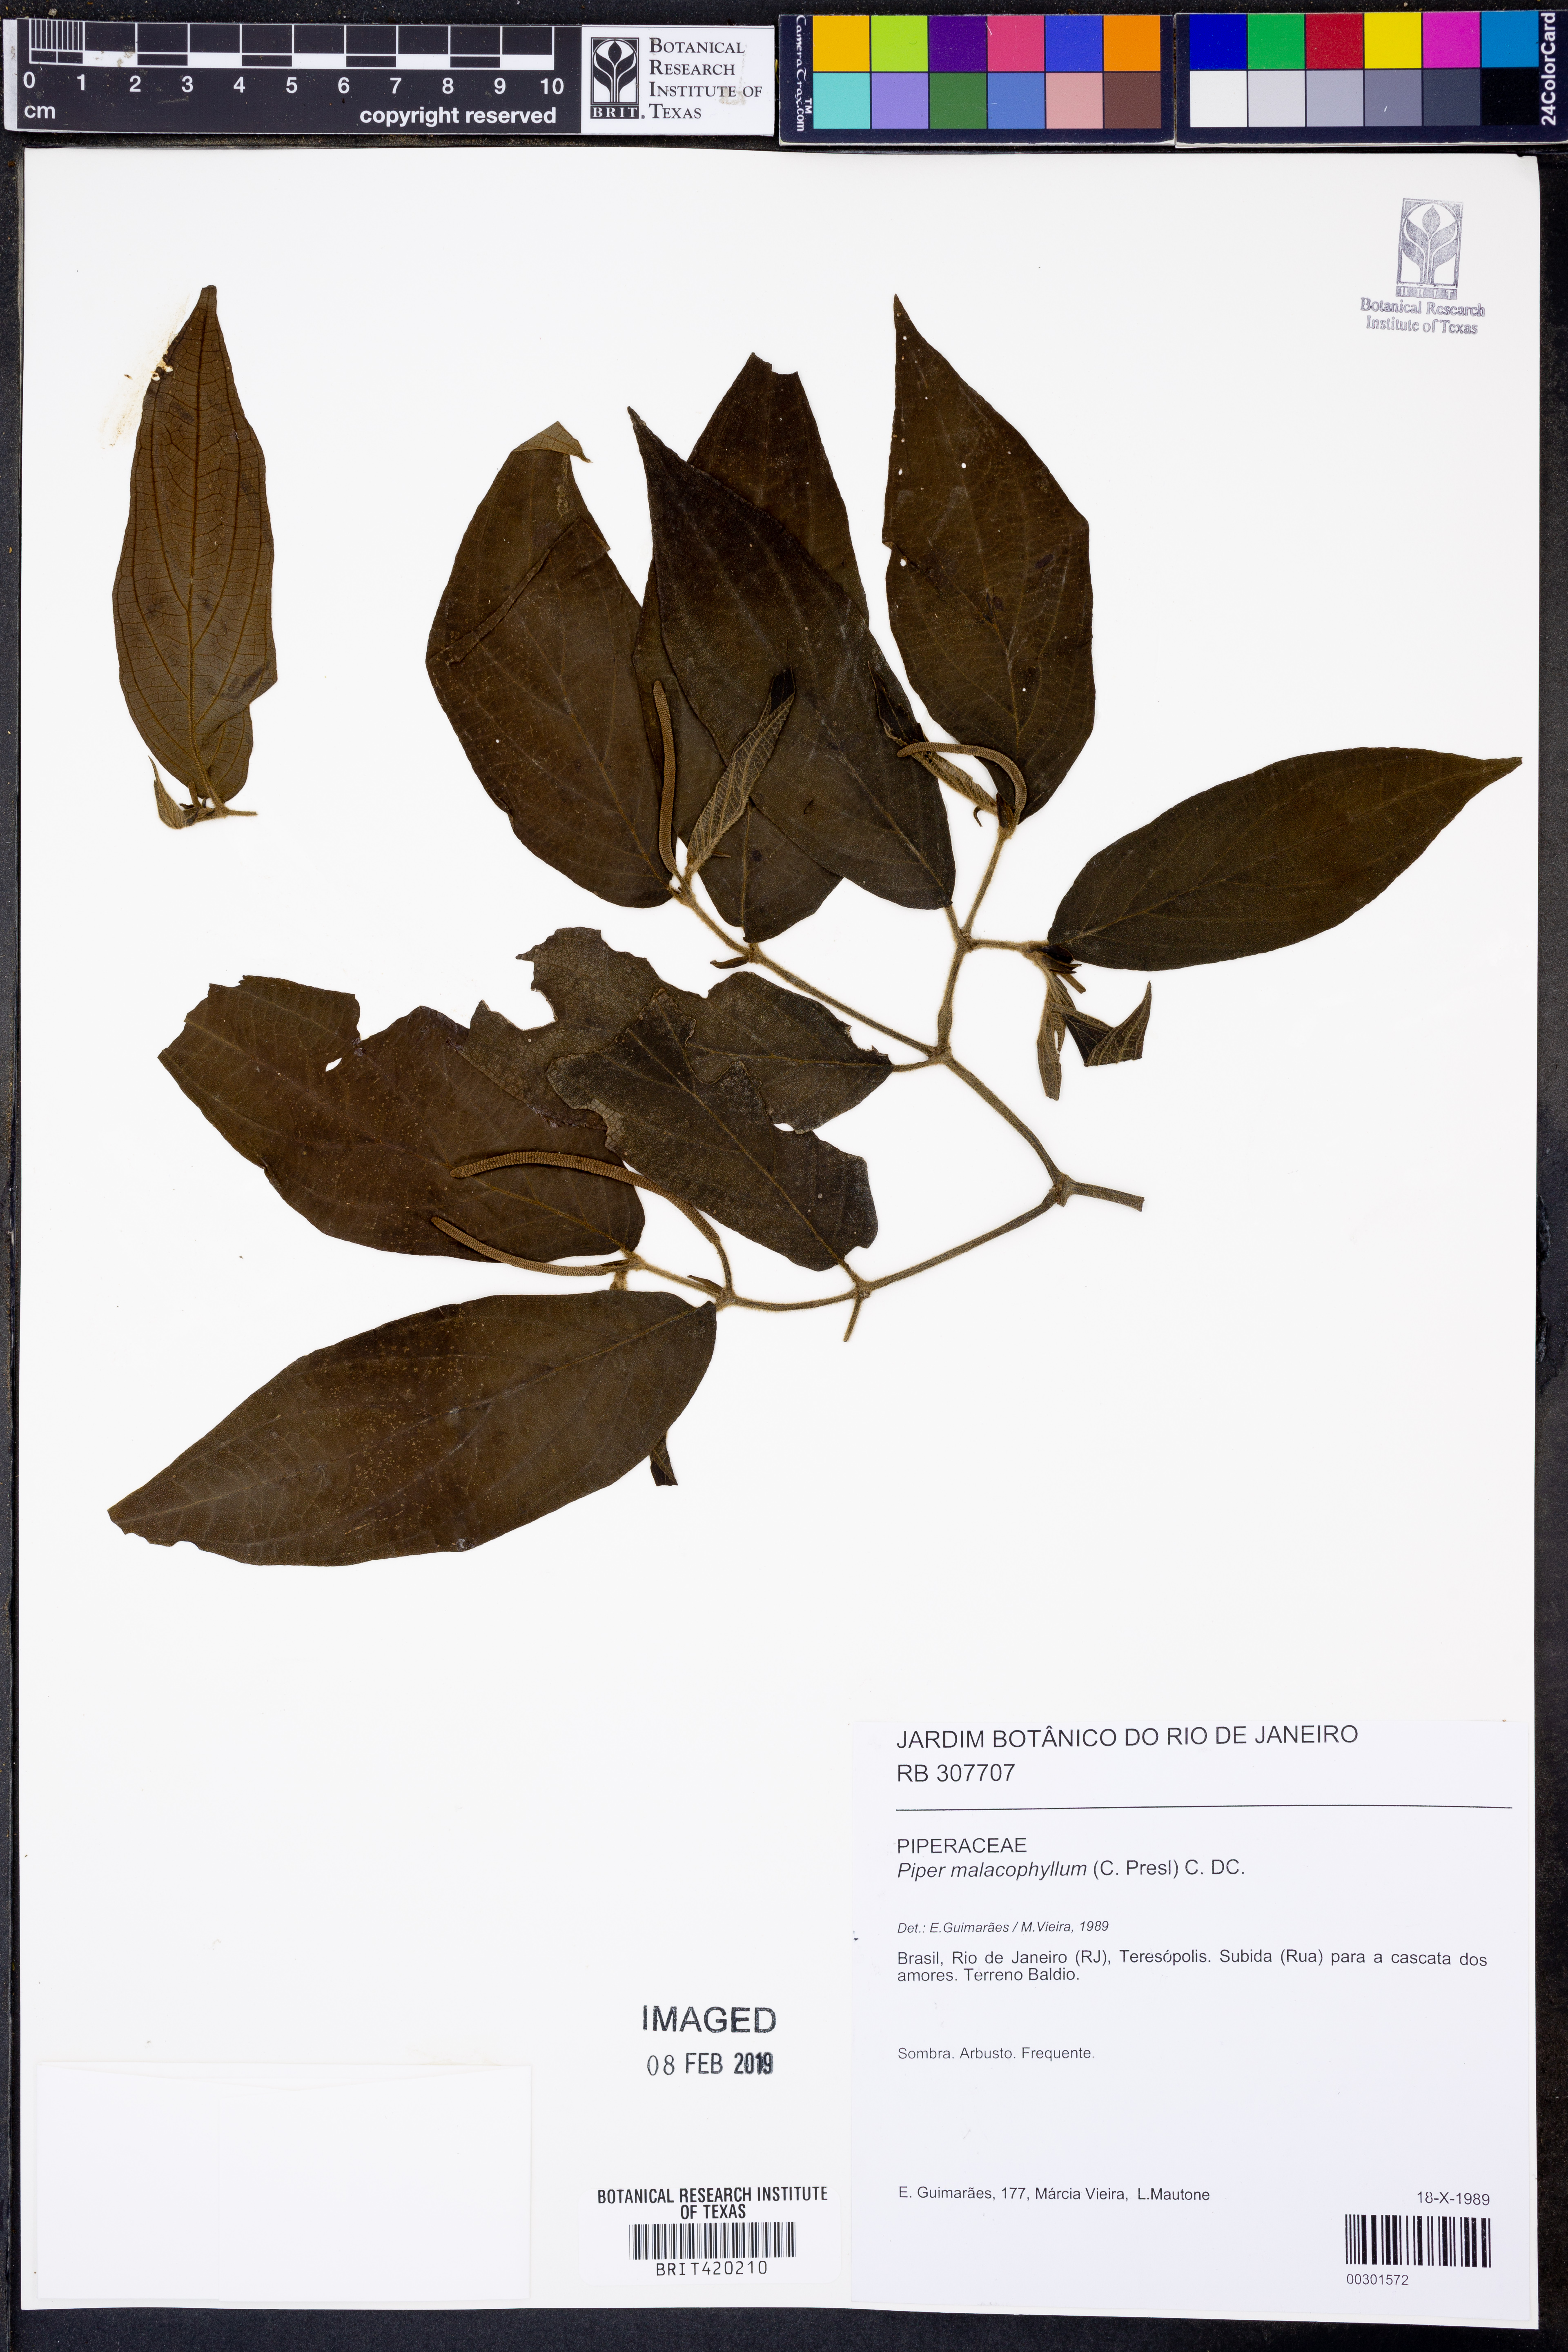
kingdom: Plantae
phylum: Tracheophyta
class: Magnoliopsida
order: Piperales
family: Piperaceae
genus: Piper
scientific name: Piper malacophyllum
